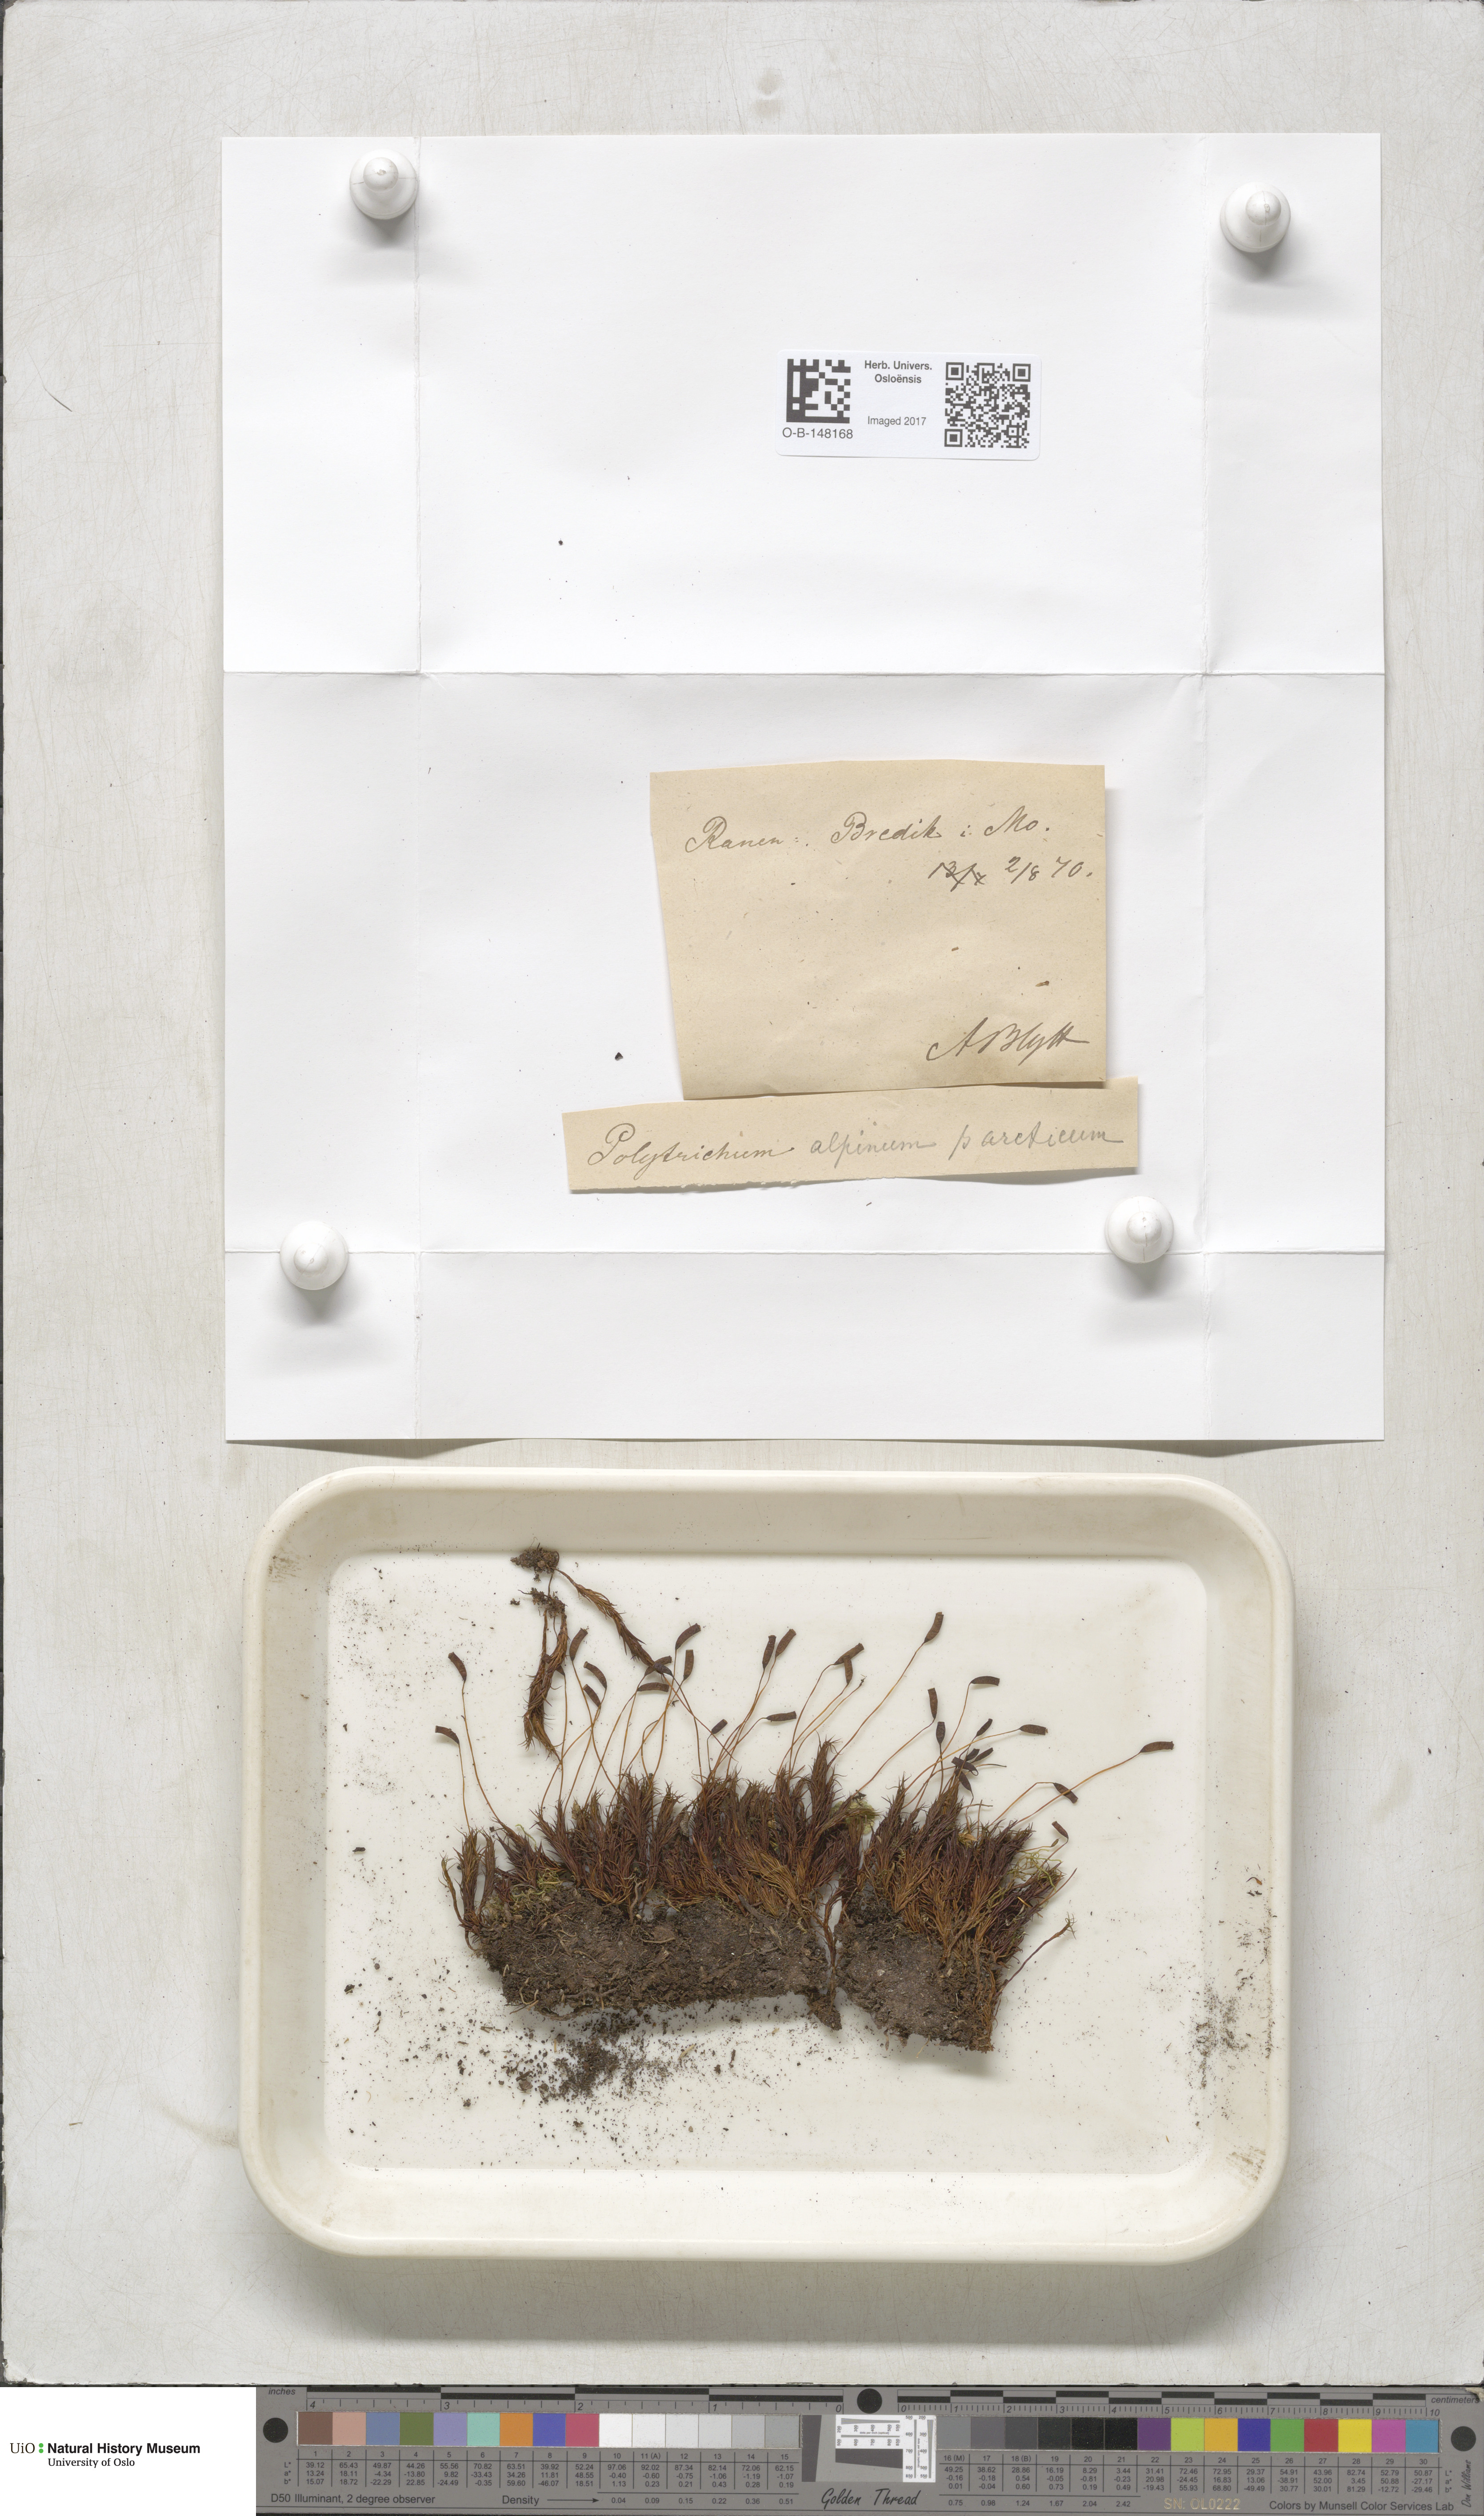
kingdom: Plantae
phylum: Bryophyta
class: Polytrichopsida
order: Polytrichales
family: Polytrichaceae
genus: Polytrichastrum
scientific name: Polytrichastrum alpinum
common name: Alpine haircap
